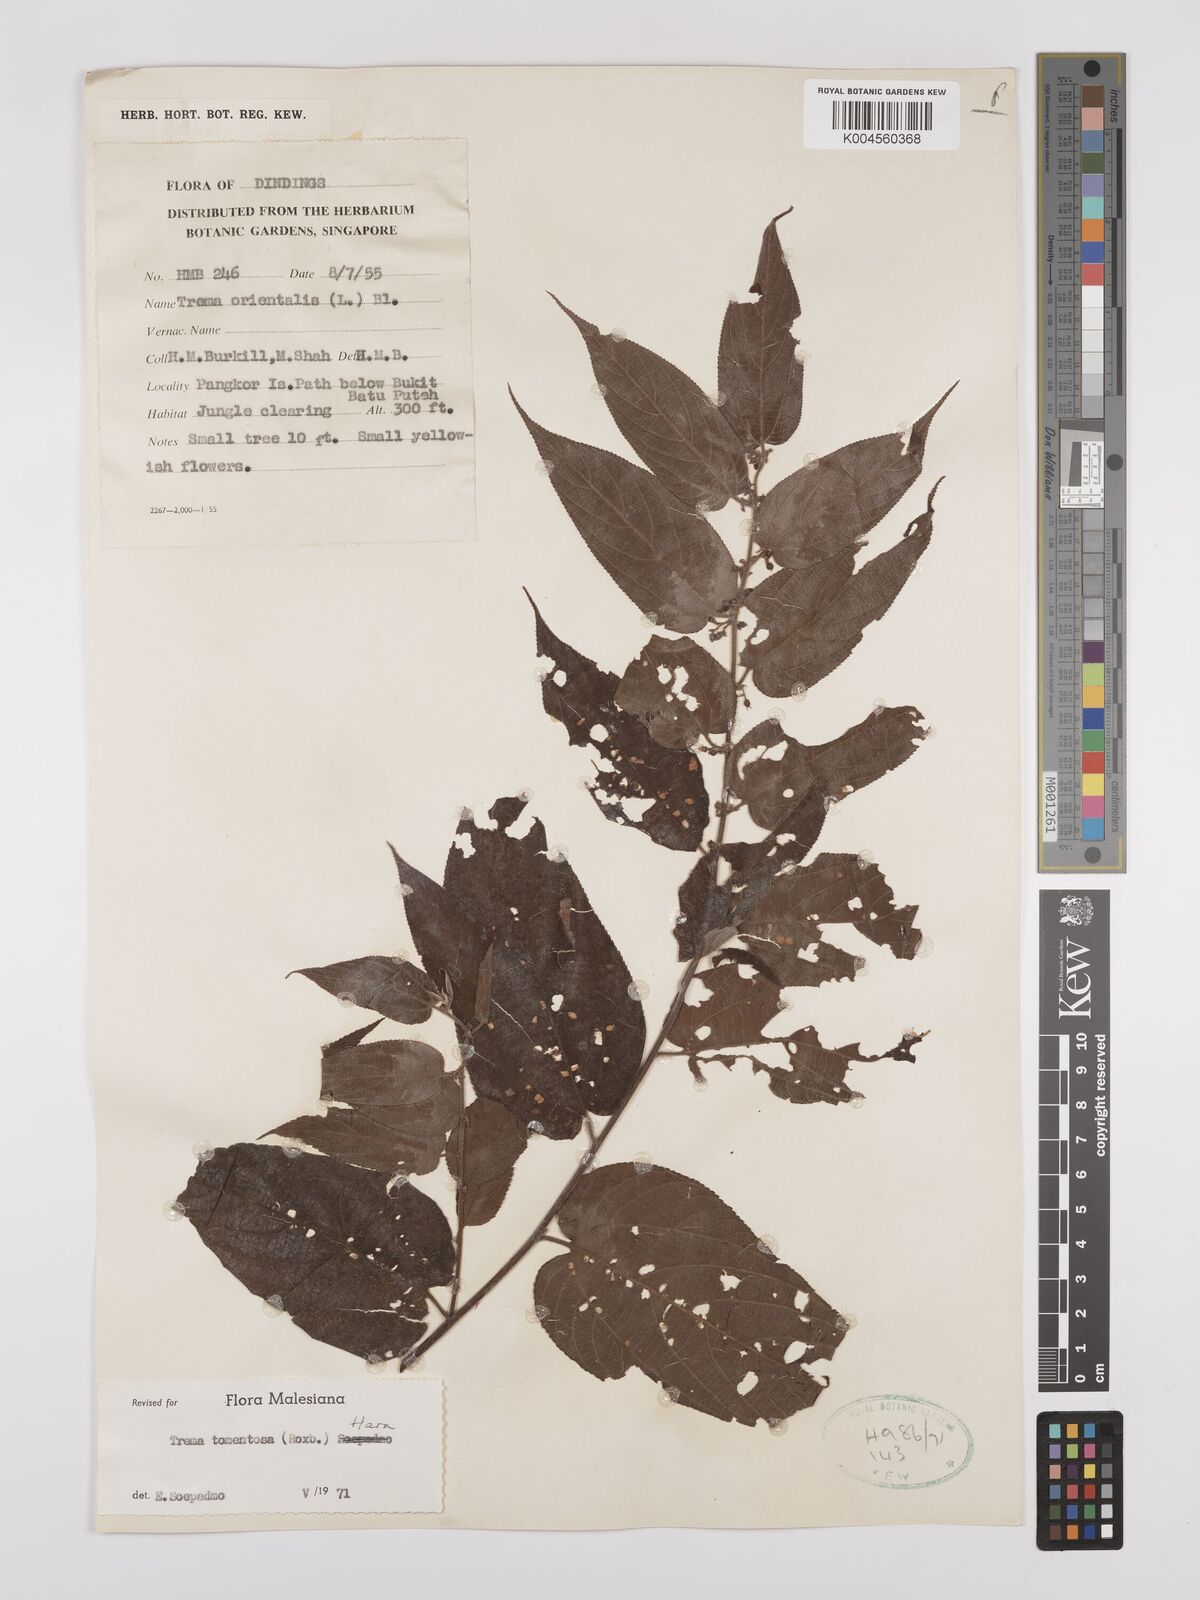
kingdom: Plantae
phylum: Tracheophyta
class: Magnoliopsida
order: Rosales
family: Cannabaceae
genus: Trema
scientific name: Trema tomentosum
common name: Peach-leaf-poisonbush
